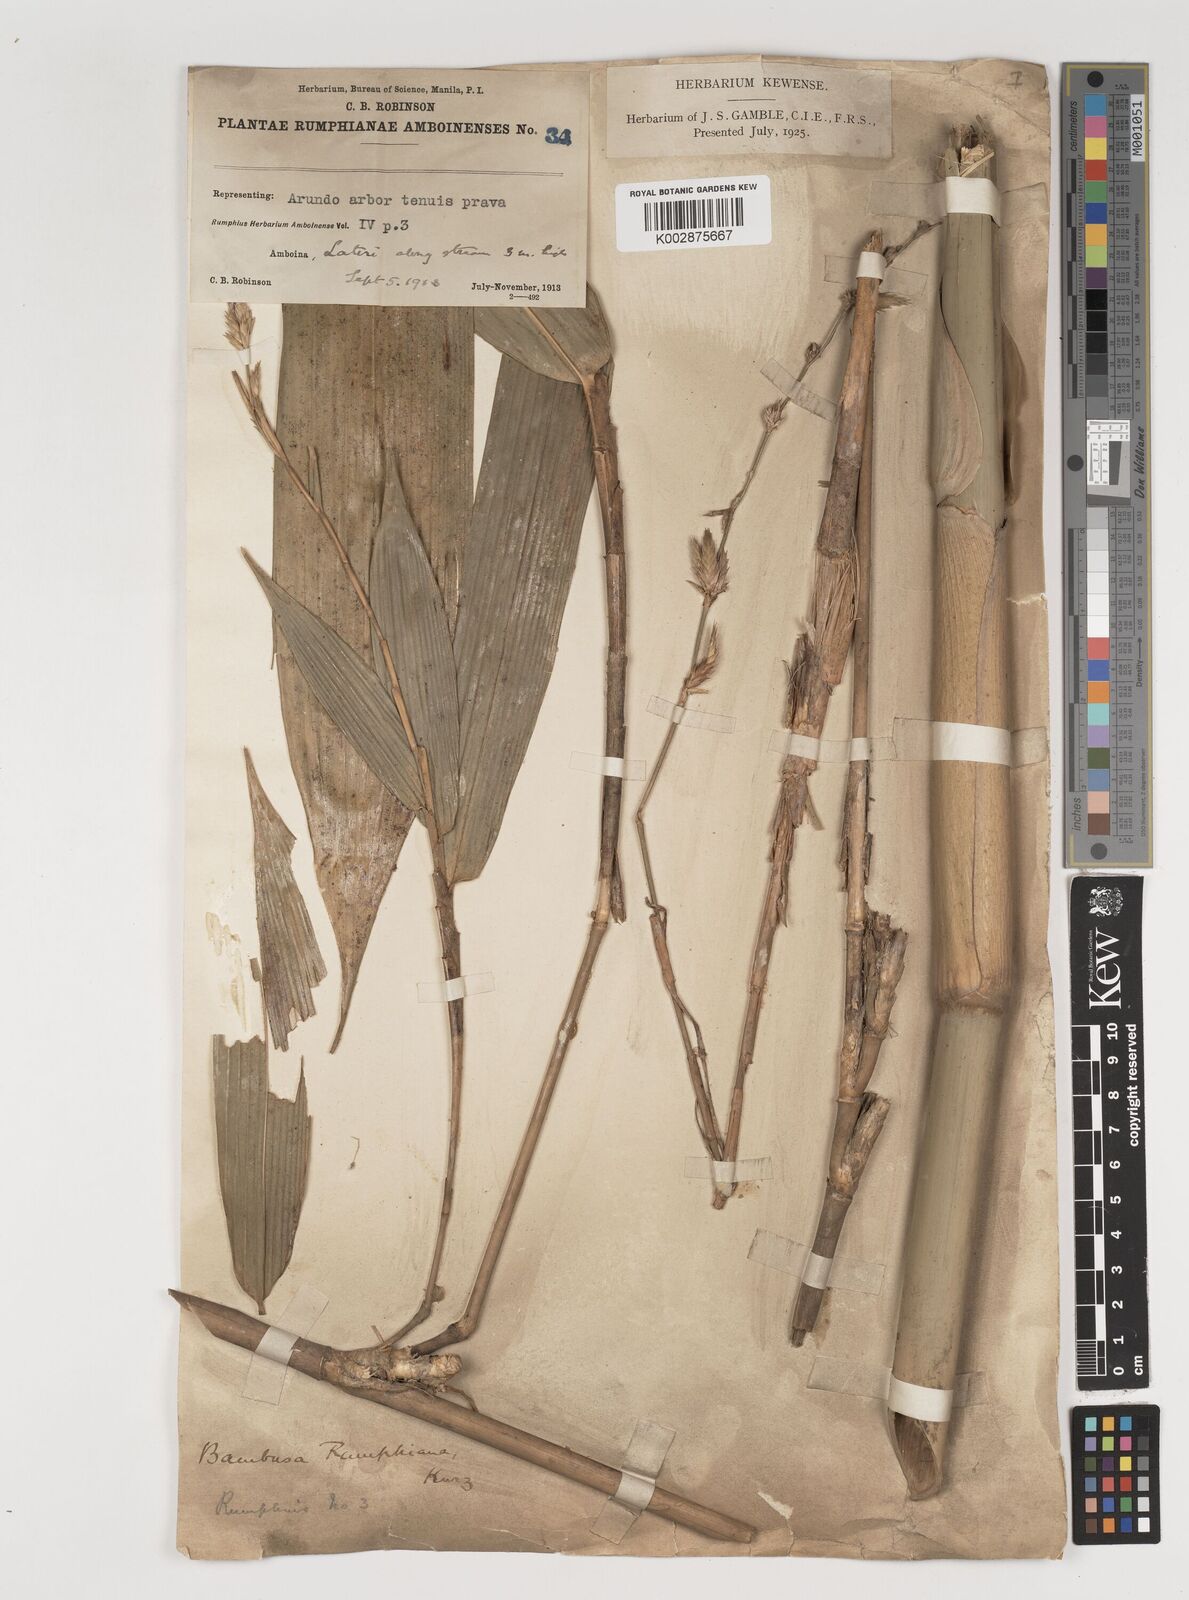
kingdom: Plantae
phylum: Tracheophyta
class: Liliopsida
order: Poales
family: Poaceae
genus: Neololeba
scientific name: Neololeba atra
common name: Cape bamboo
